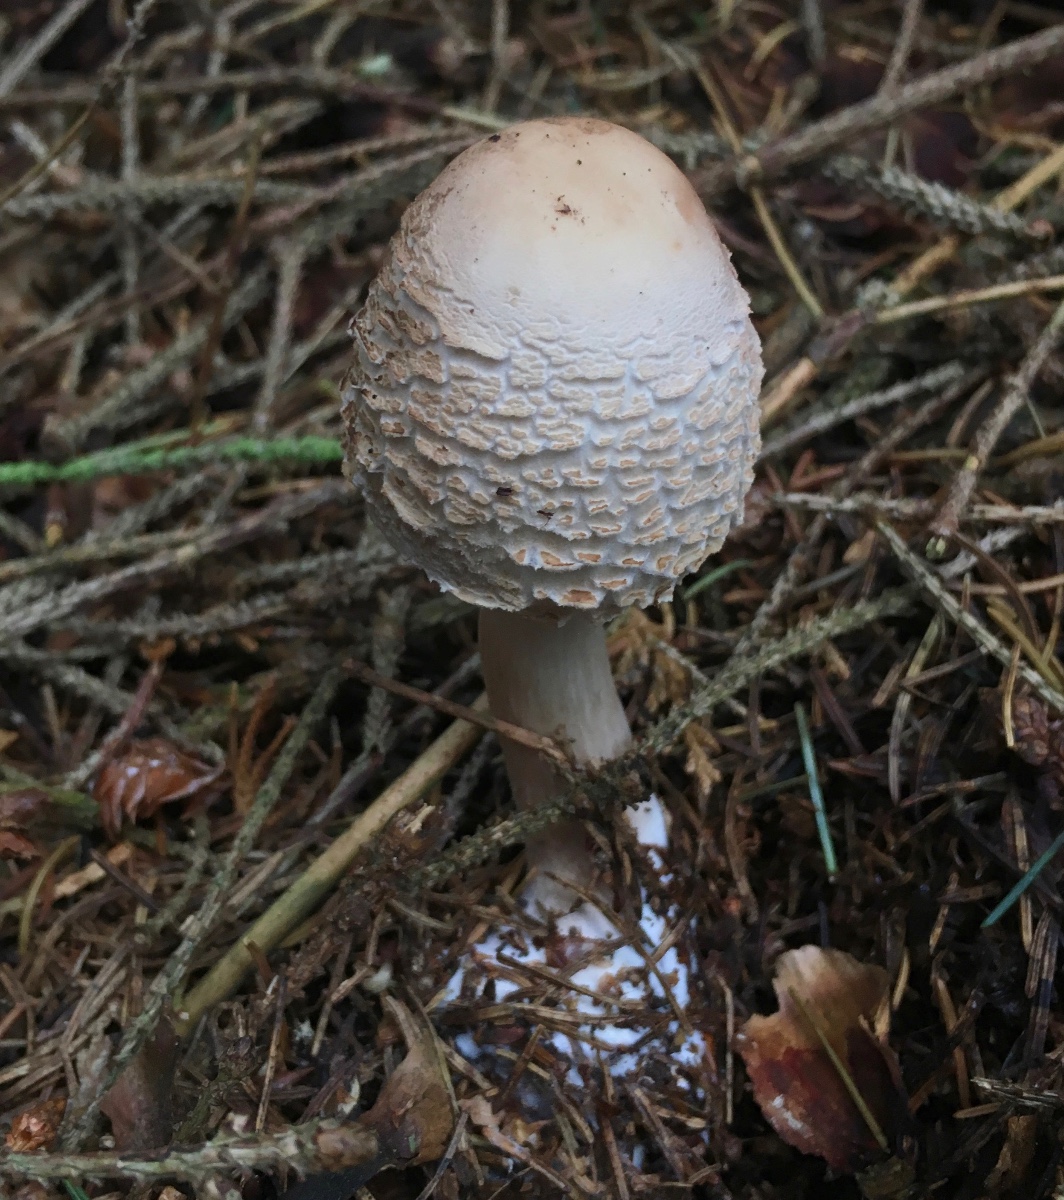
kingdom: Fungi
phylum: Basidiomycota
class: Agaricomycetes
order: Agaricales
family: Agaricaceae
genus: Chlorophyllum
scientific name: Chlorophyllum olivieri
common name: almindelig rabarberhat
